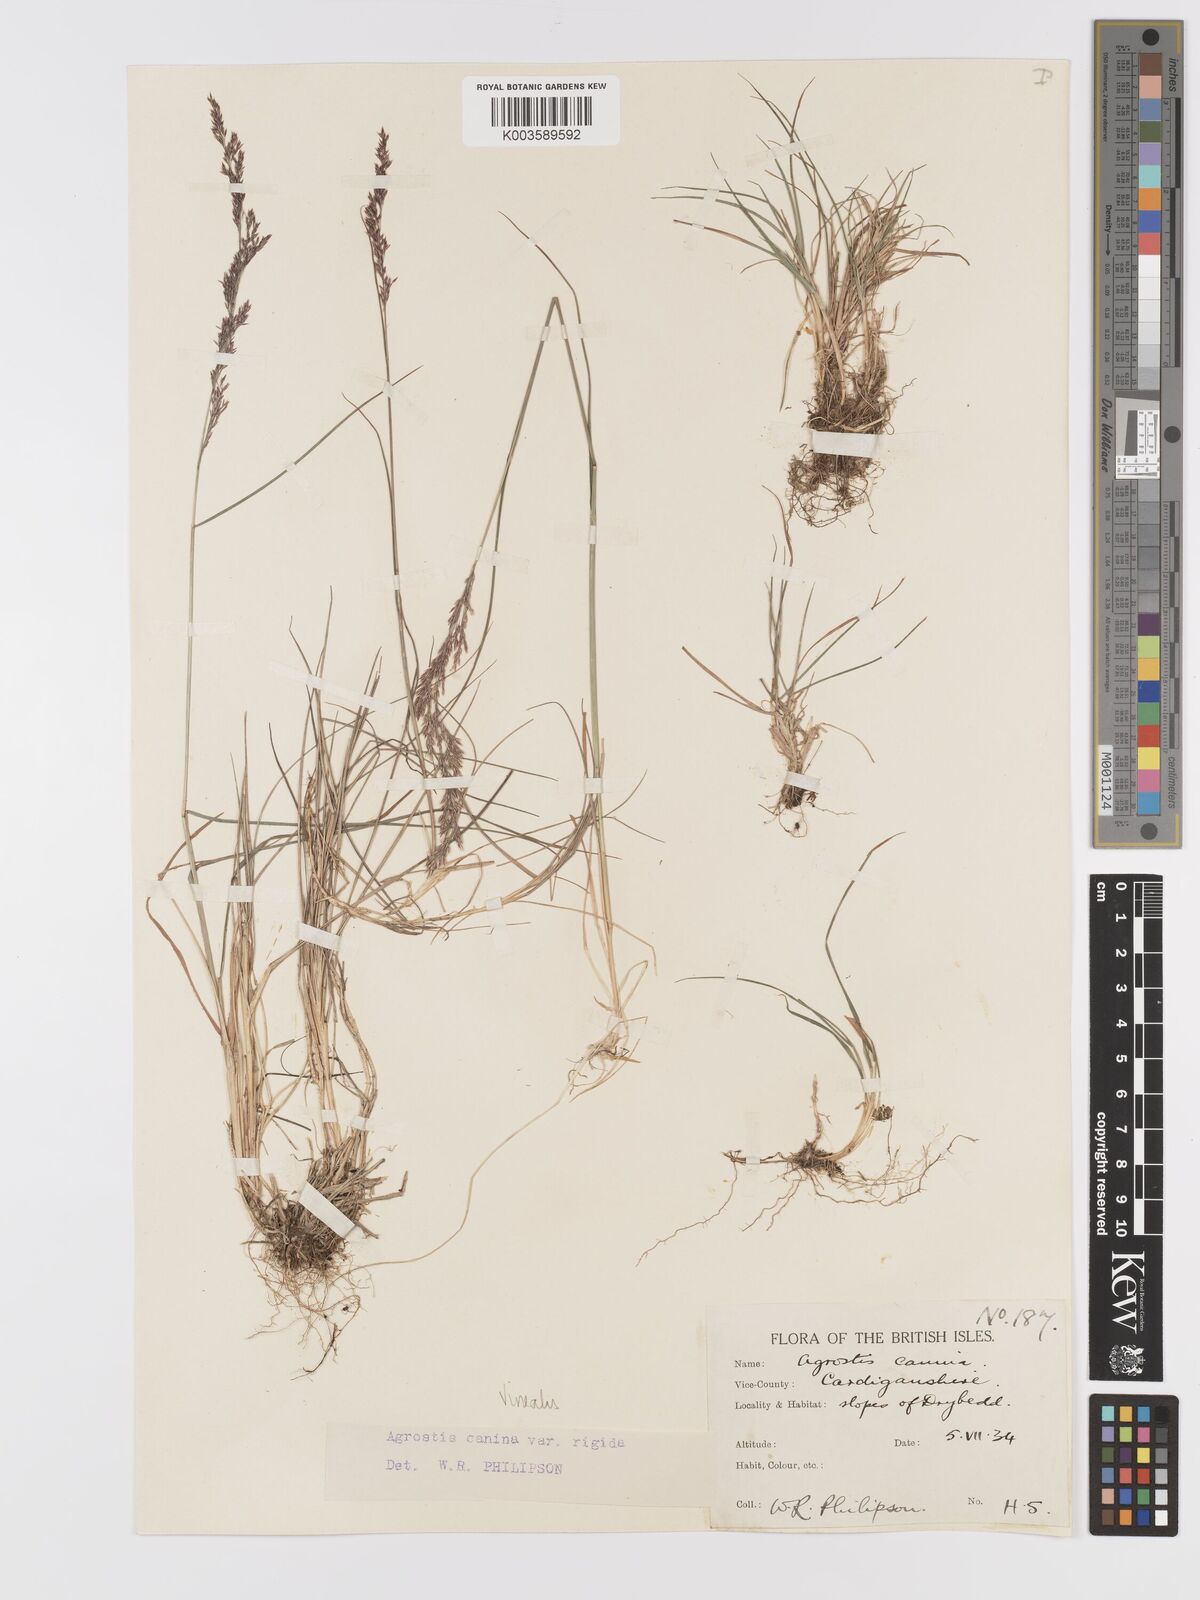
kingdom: Plantae
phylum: Tracheophyta
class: Liliopsida
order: Poales
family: Poaceae
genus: Agrostis
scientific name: Agrostis
